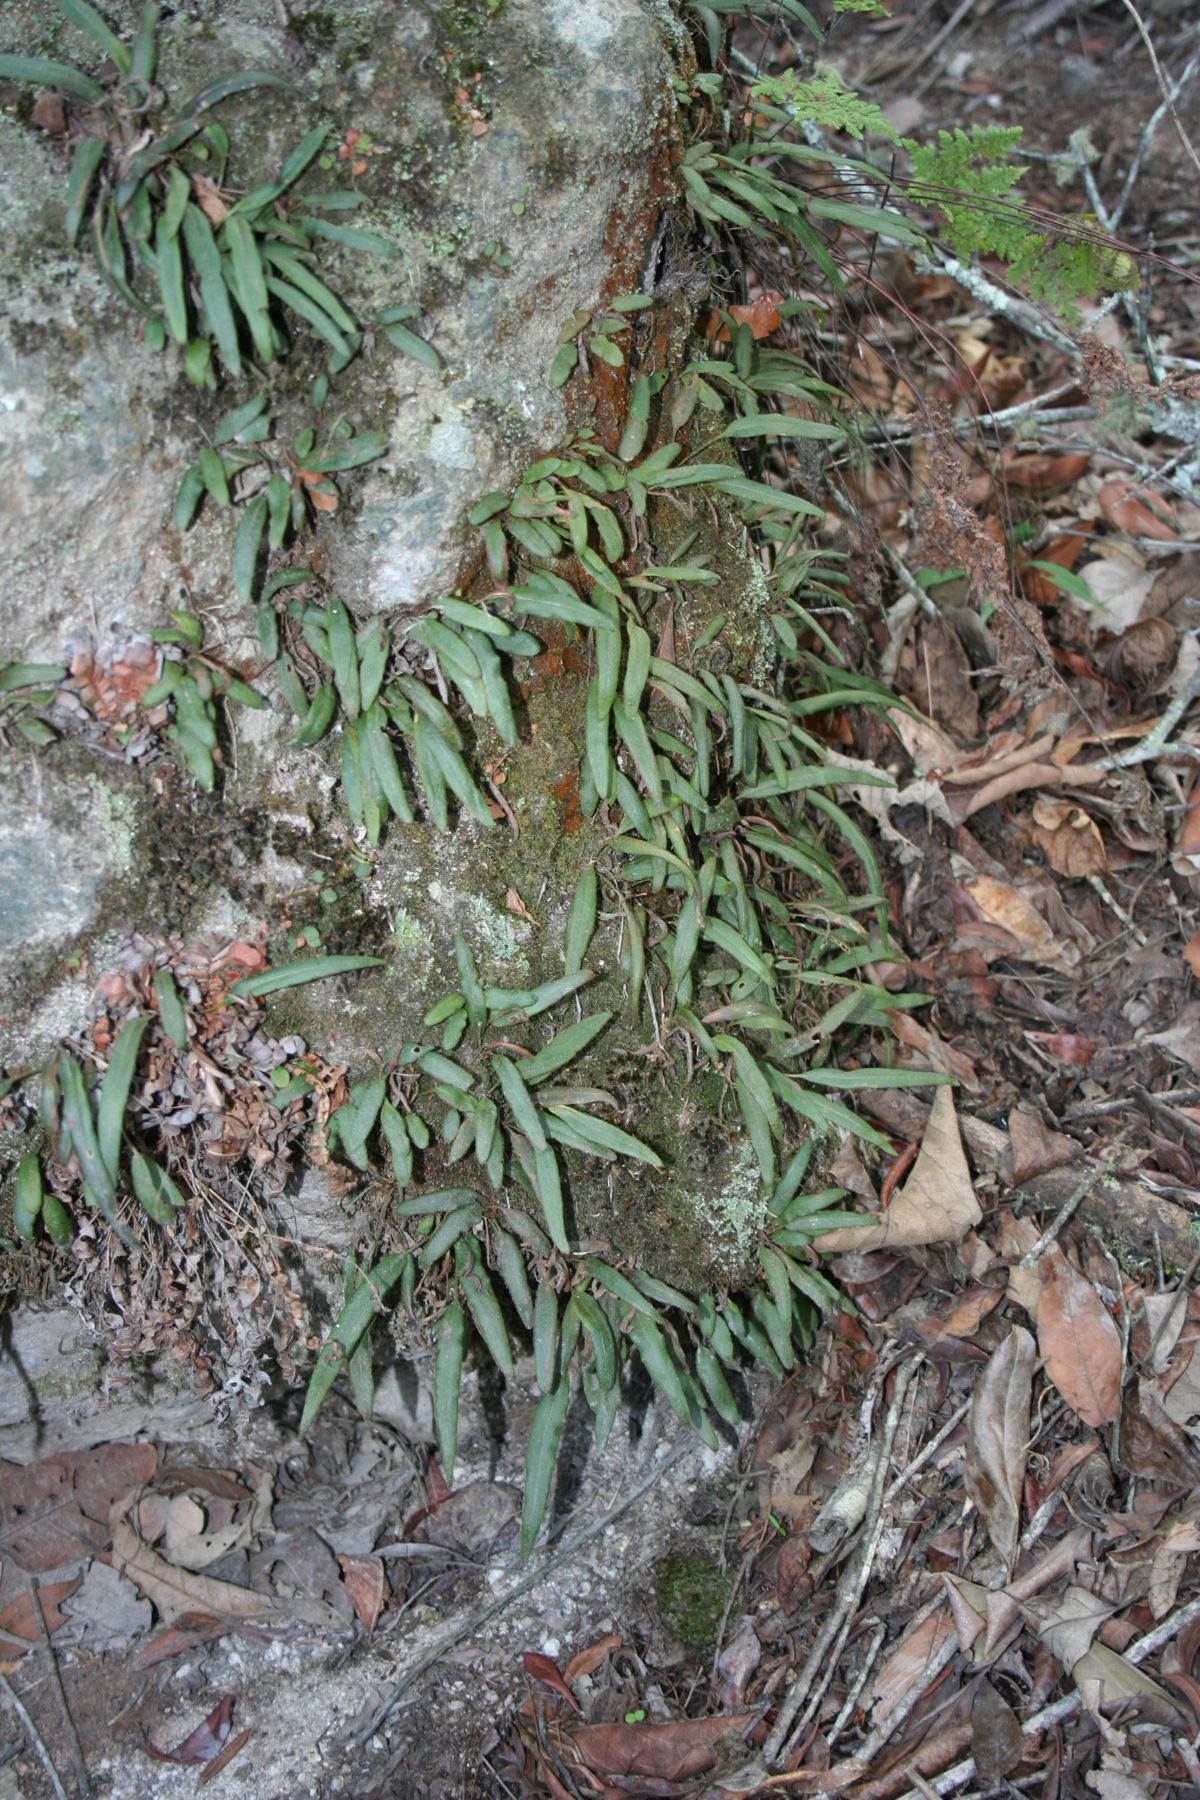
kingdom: Plantae
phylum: Tracheophyta
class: Polypodiopsida
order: Polypodiales
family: Dryopteridaceae
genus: Elaphoglossum
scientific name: Elaphoglossum tenuiculum
